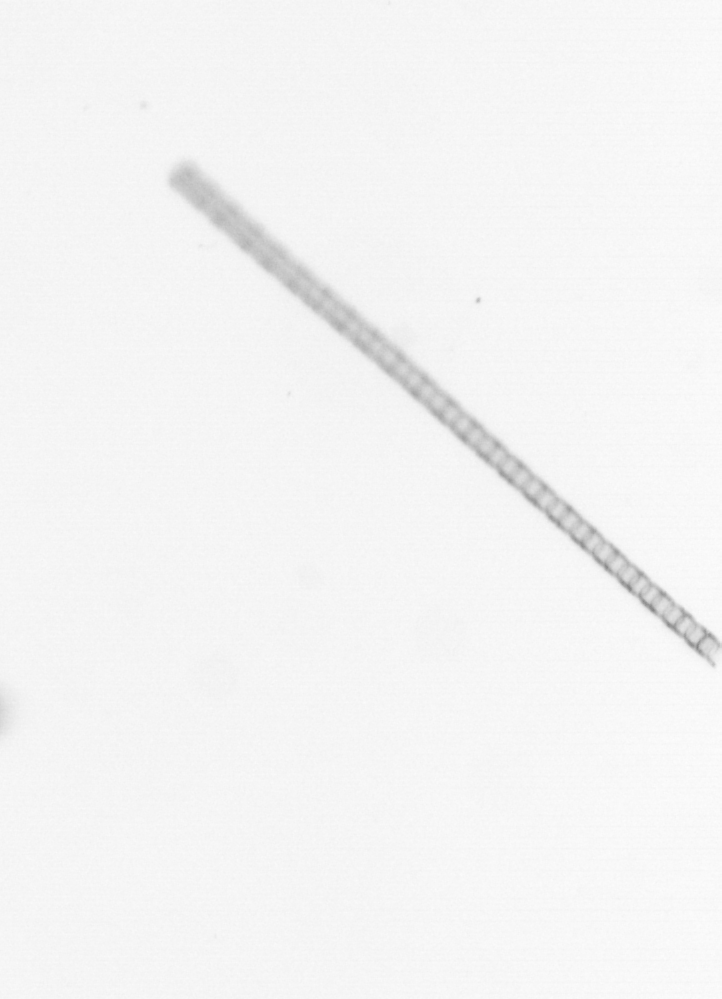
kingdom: Chromista
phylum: Ochrophyta
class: Bacillariophyceae
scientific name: Bacillariophyceae
